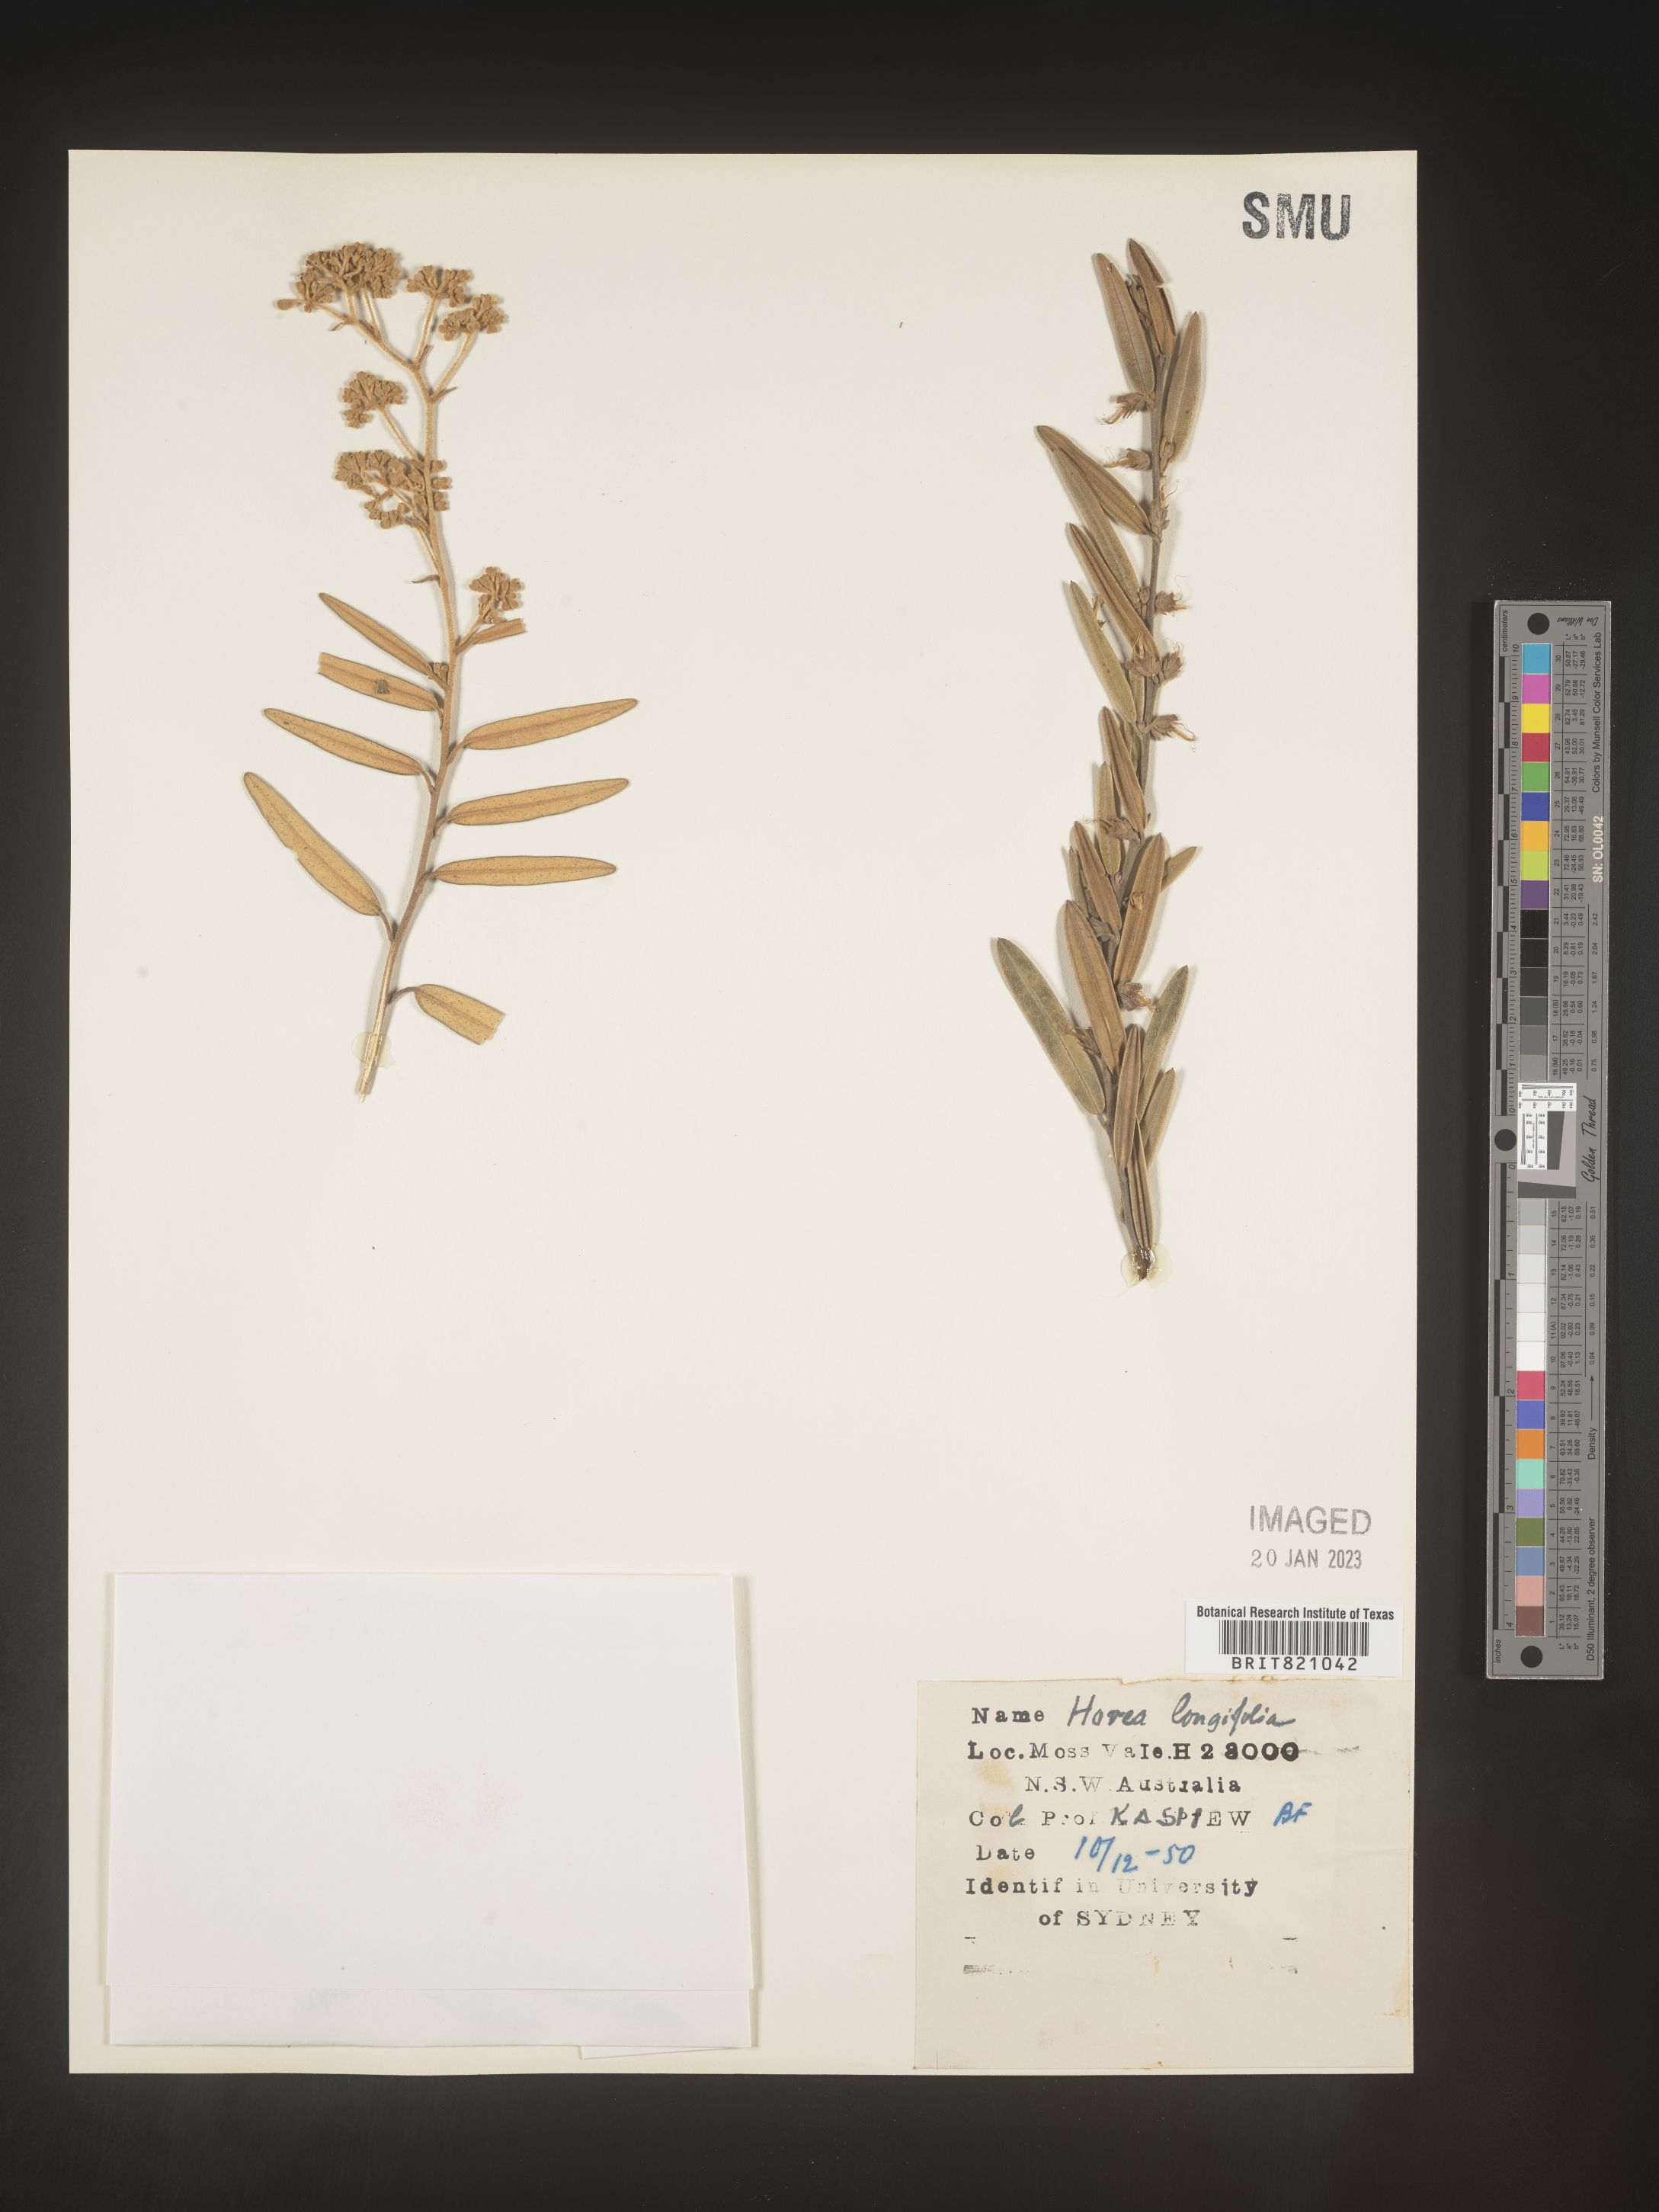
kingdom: Plantae
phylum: Tracheophyta
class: Magnoliopsida
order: Fabales
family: Fabaceae
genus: Hovea
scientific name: Hovea
